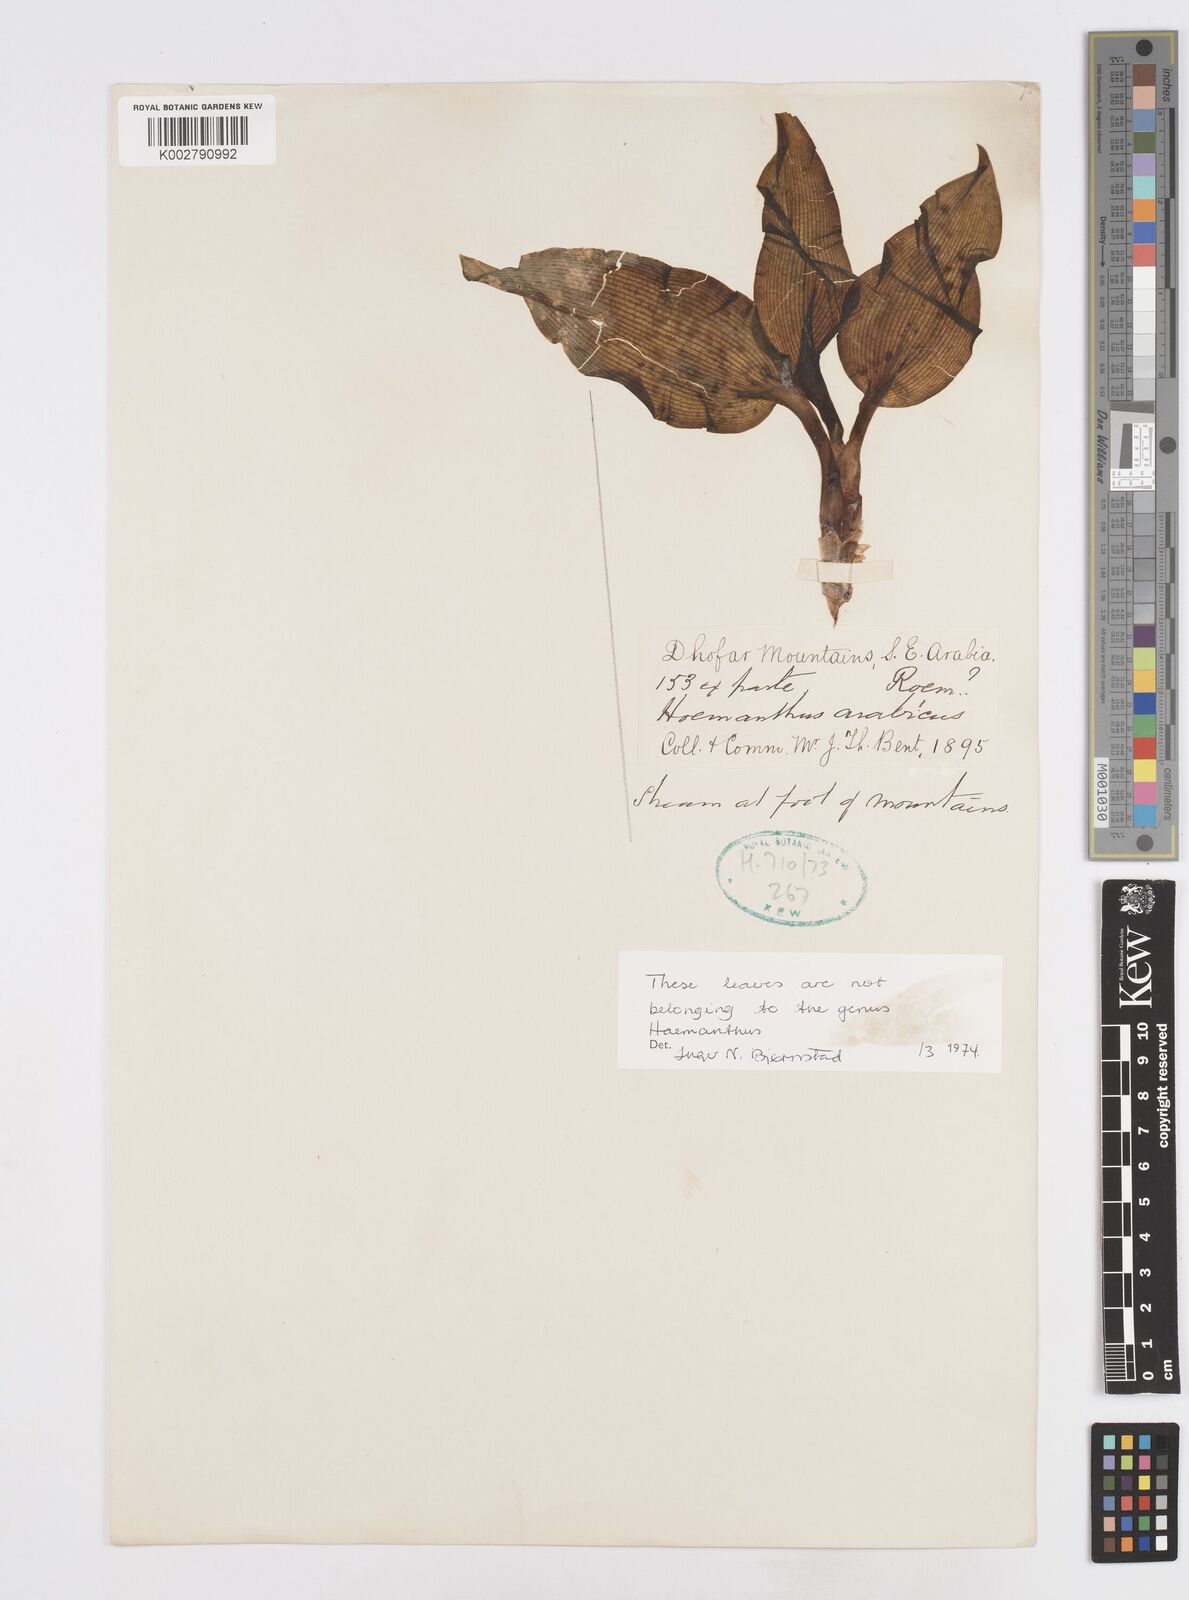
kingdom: Plantae
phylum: Tracheophyta
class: Liliopsida
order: Asparagales
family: Asparagaceae
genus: Scilla
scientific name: Scilla
